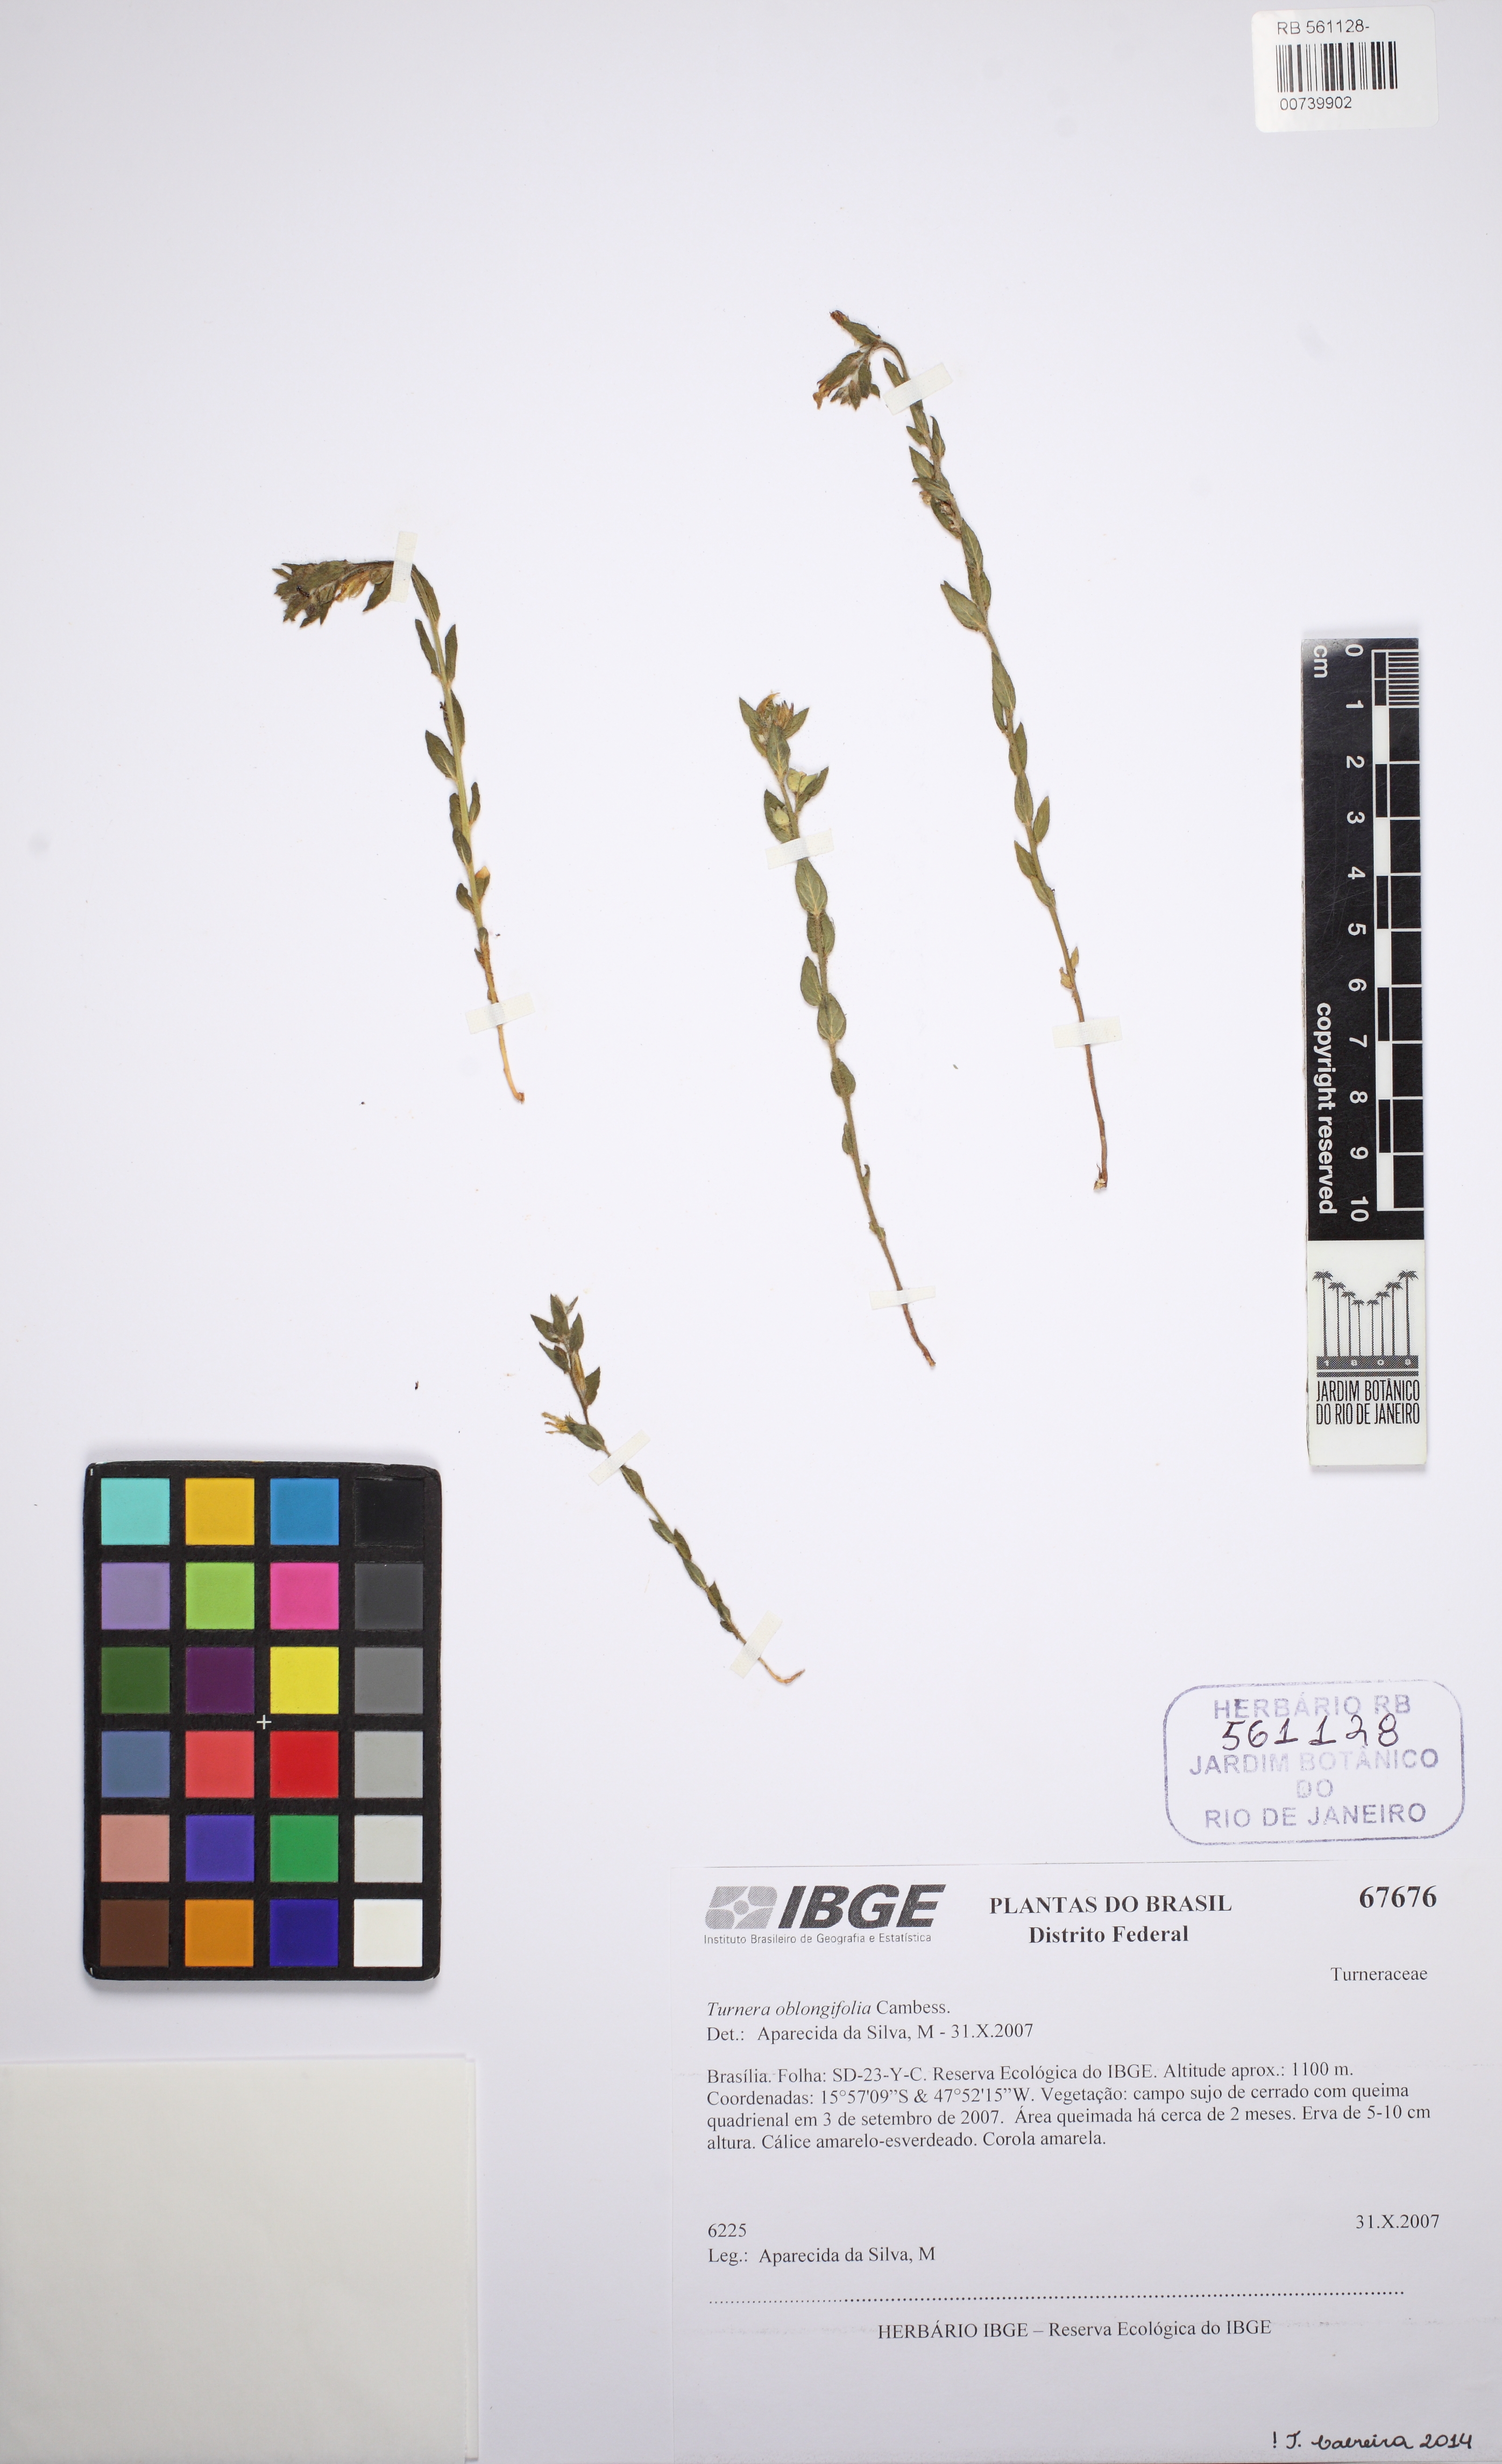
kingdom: Plantae
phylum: Tracheophyta
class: Magnoliopsida
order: Malpighiales
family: Turneraceae
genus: Turnera
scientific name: Turnera oblongifolia
